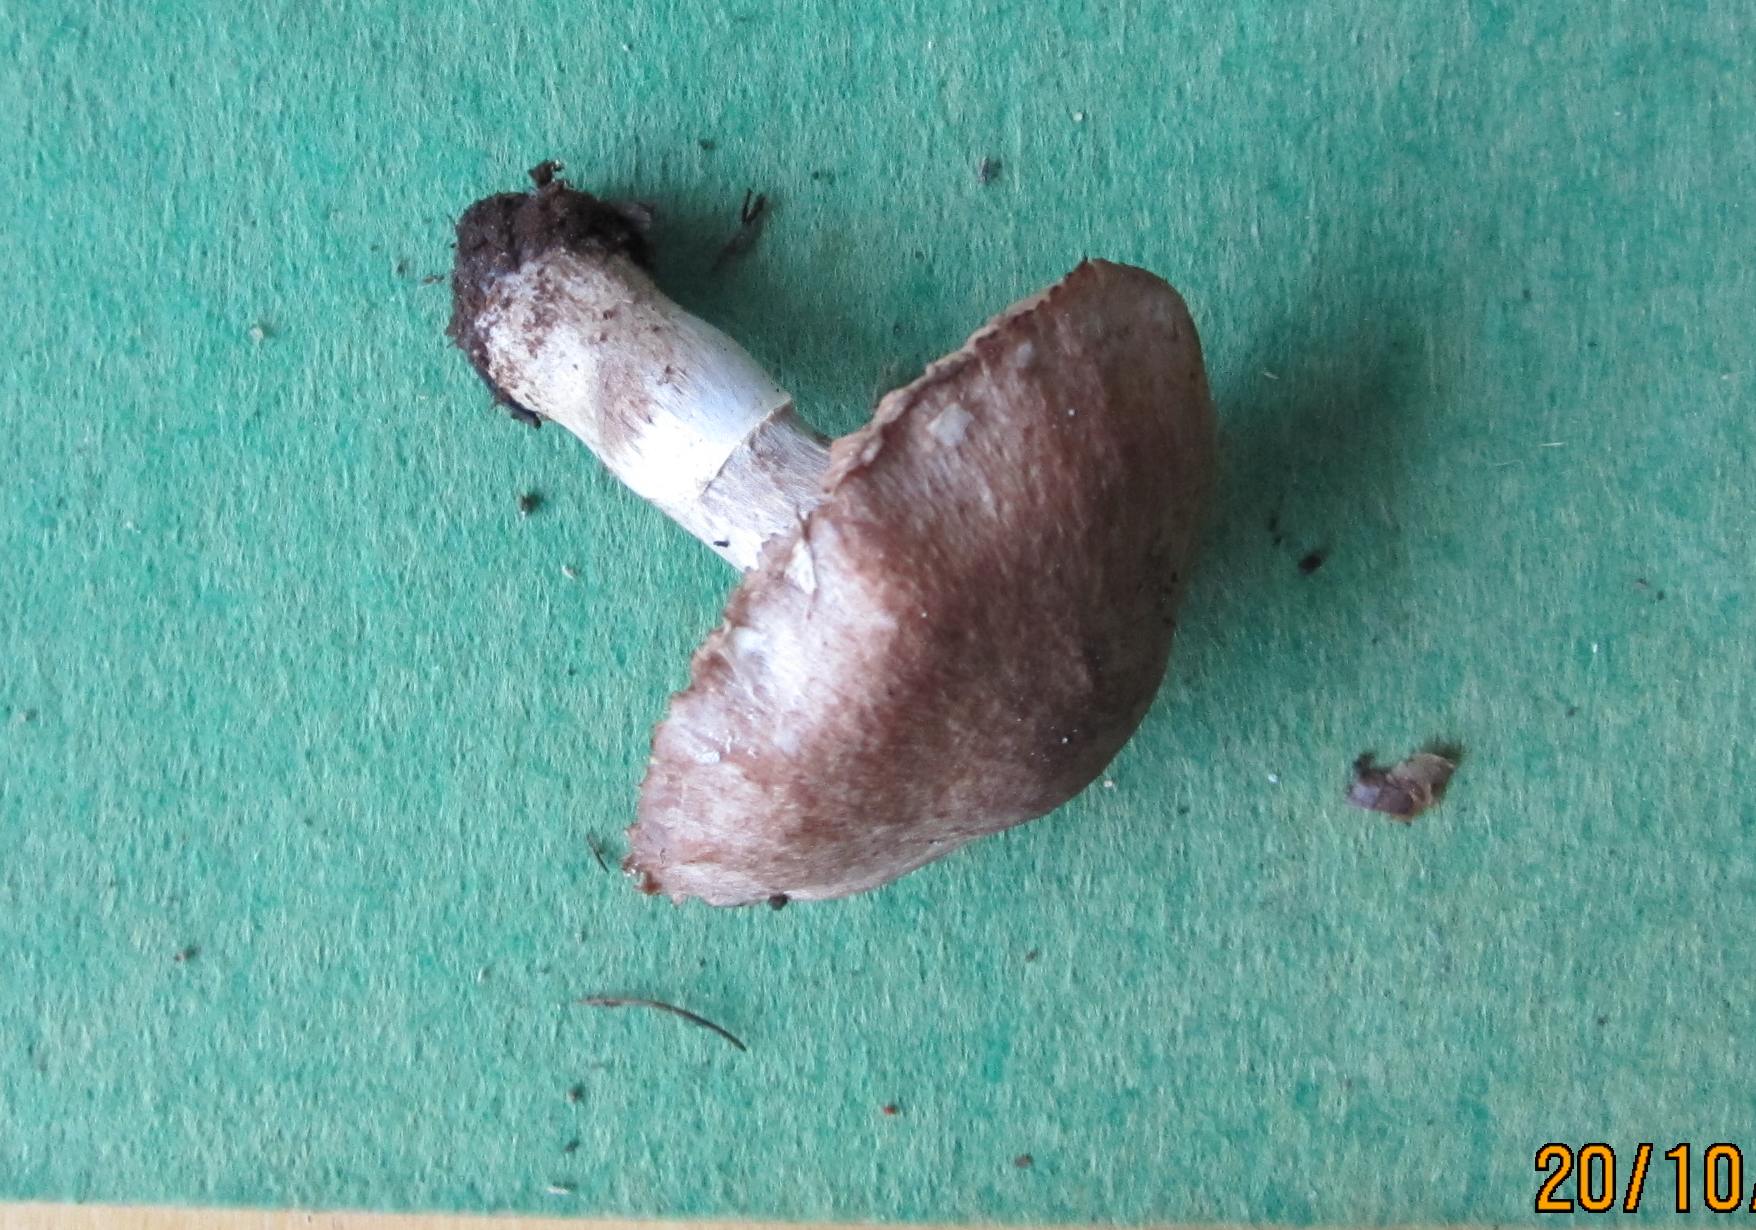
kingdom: Fungi
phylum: Basidiomycota
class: Agaricomycetes
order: Agaricales
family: Cortinariaceae
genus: Cortinarius
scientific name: Cortinarius torvus
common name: champignonagtig slørhat
